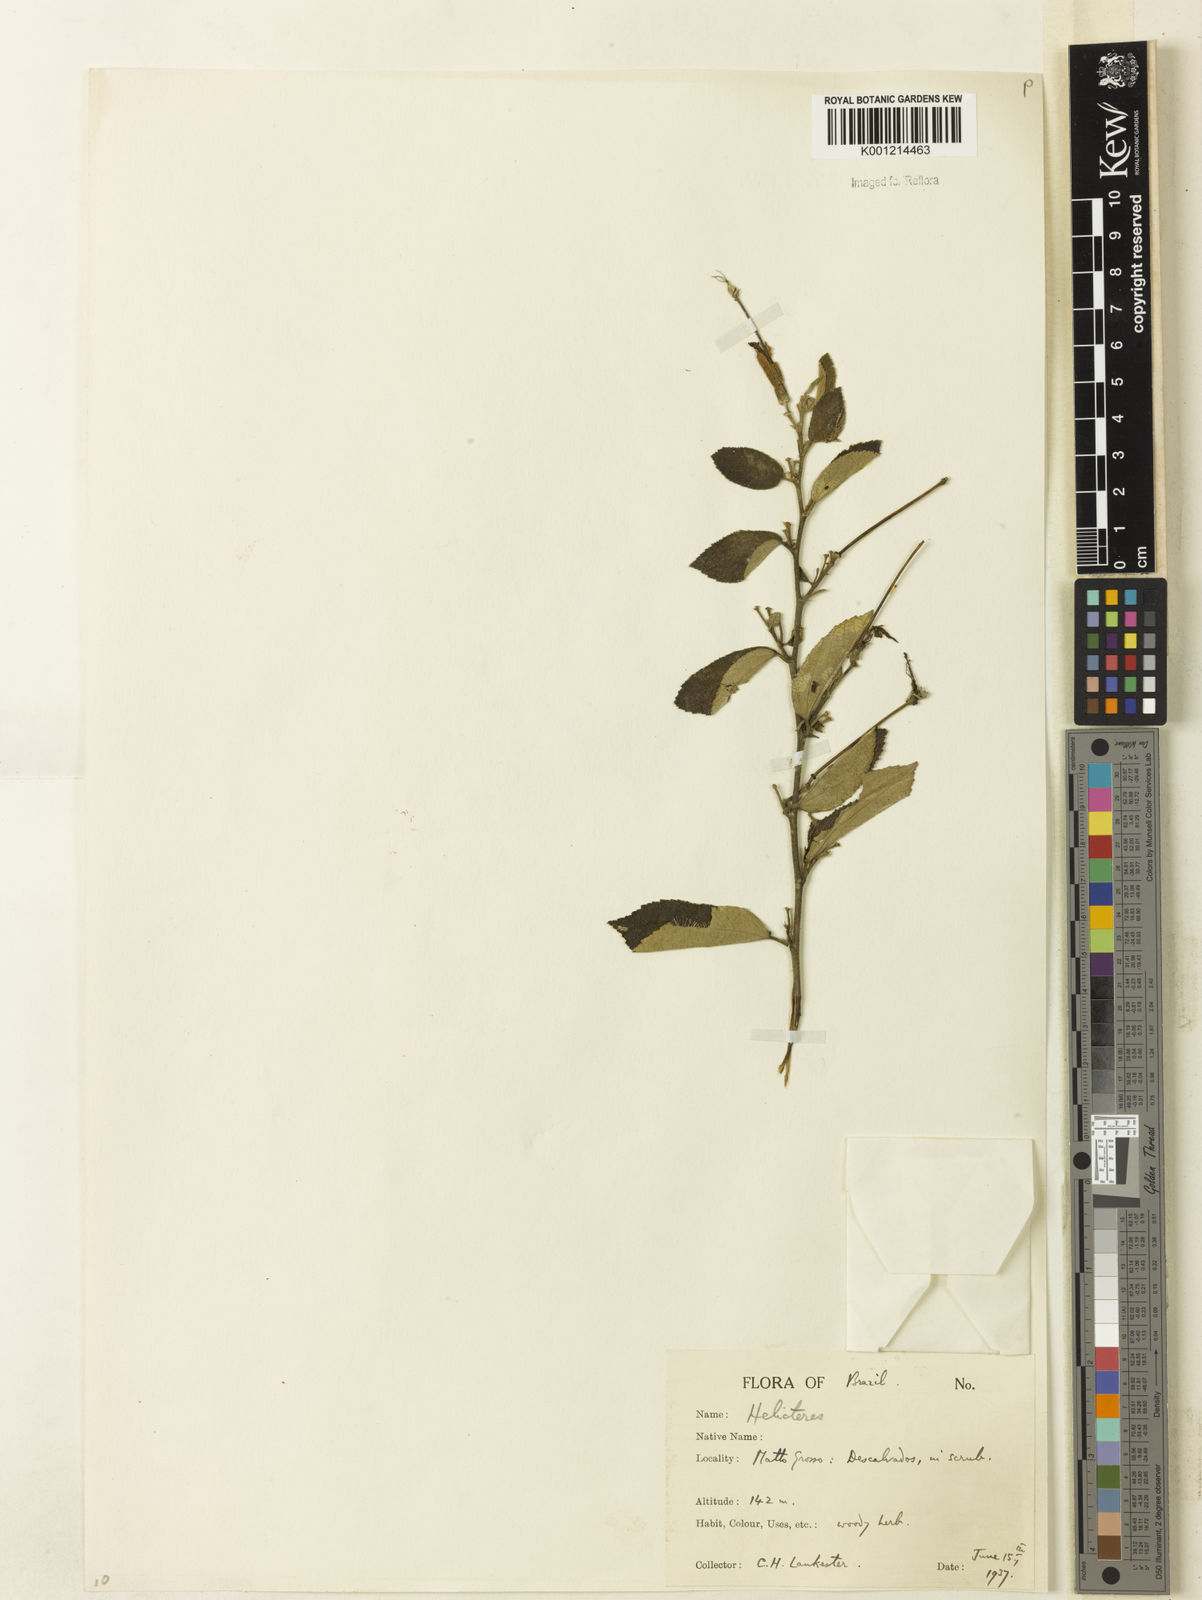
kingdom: Plantae
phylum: Tracheophyta
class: Magnoliopsida
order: Malvales
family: Malvaceae
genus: Helicteres
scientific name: Helicteres
